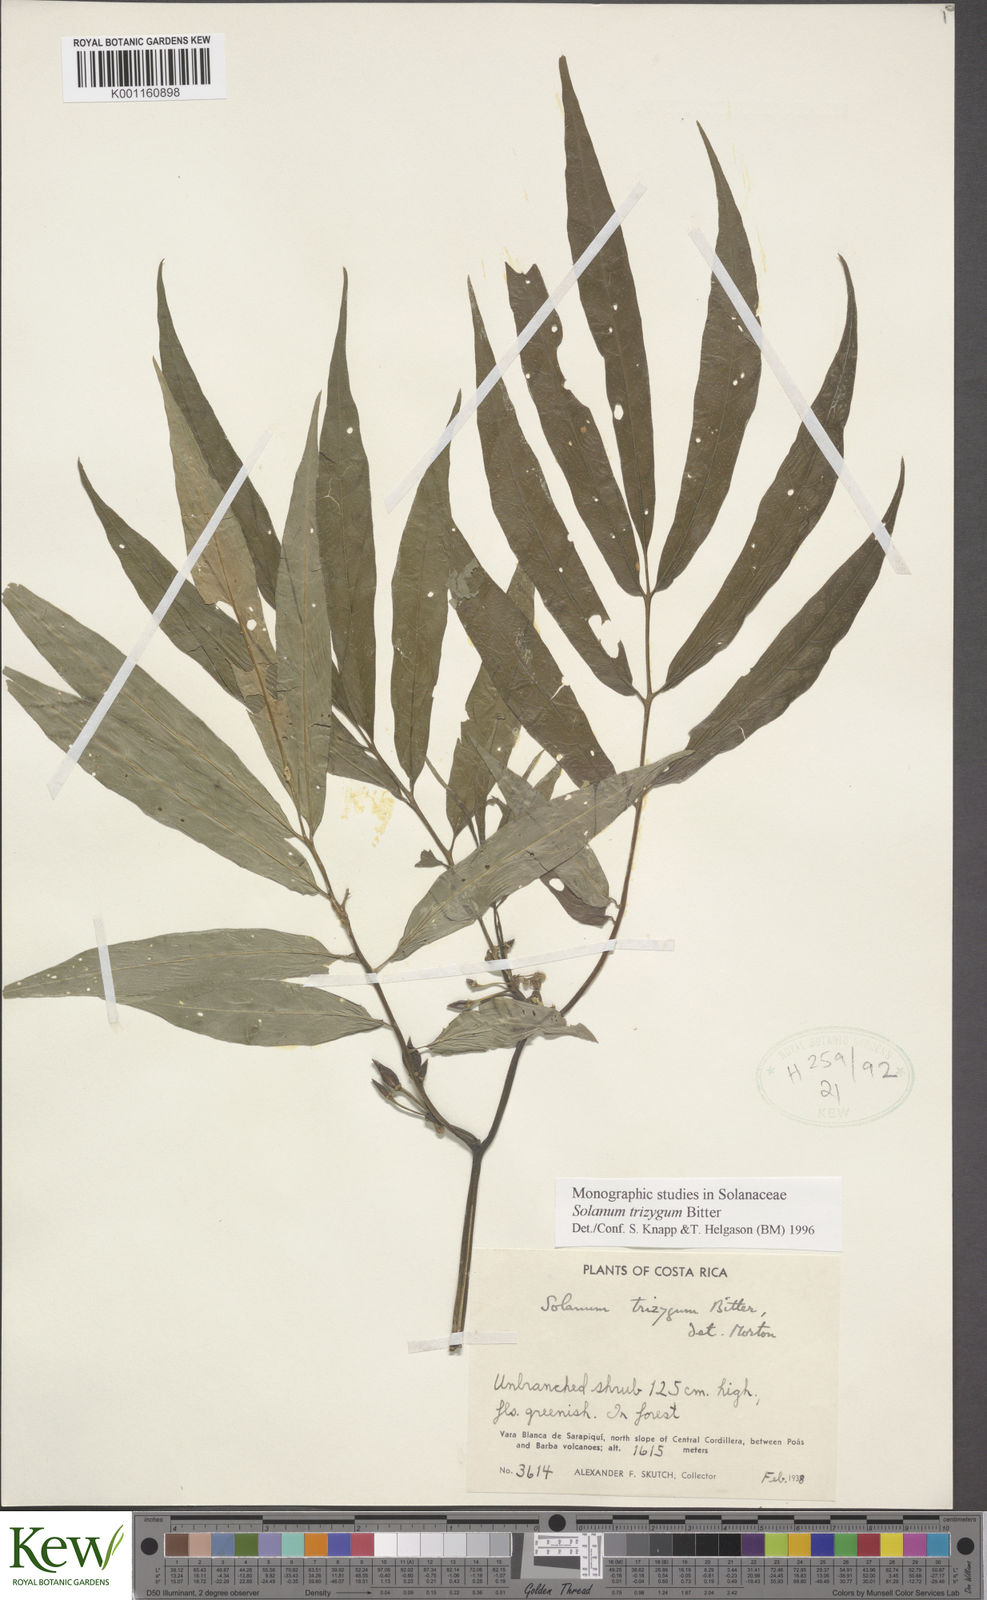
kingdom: Plantae
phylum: Tracheophyta
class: Magnoliopsida
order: Solanales
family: Solanaceae
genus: Solanum
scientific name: Solanum trizygum
